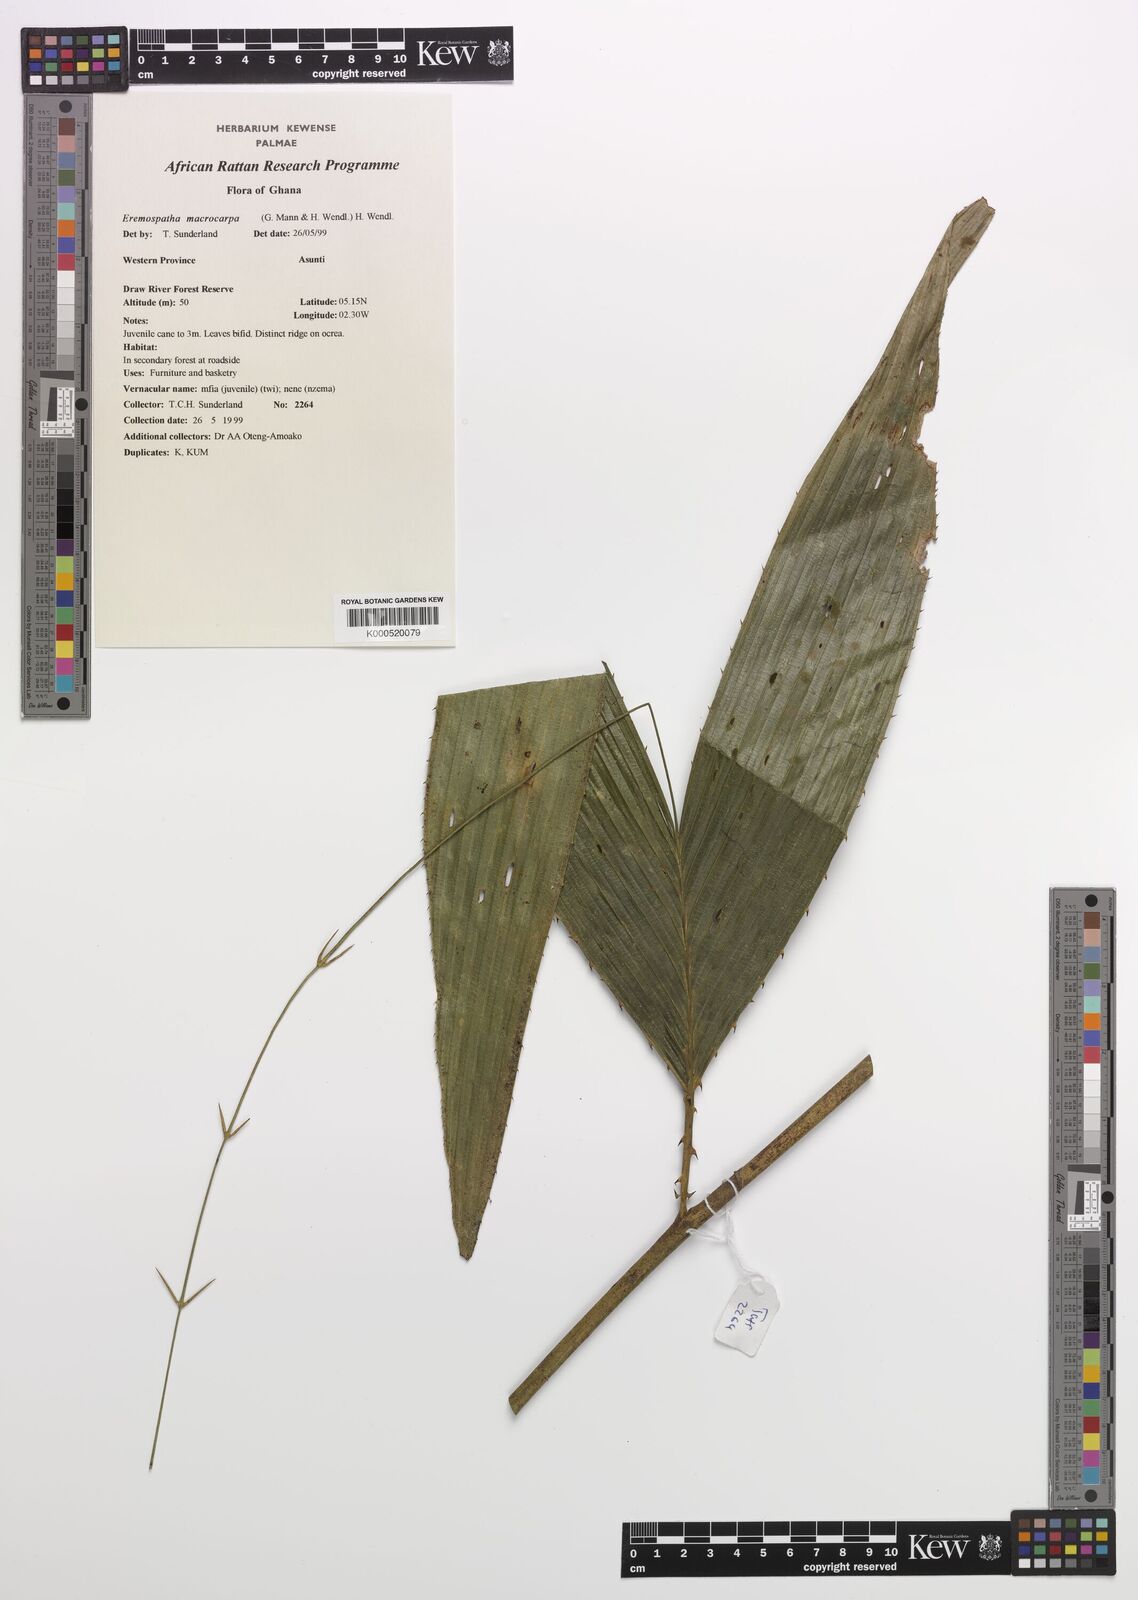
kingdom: Plantae
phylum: Tracheophyta
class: Liliopsida
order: Arecales
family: Arecaceae
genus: Eremospatha
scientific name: Eremospatha
